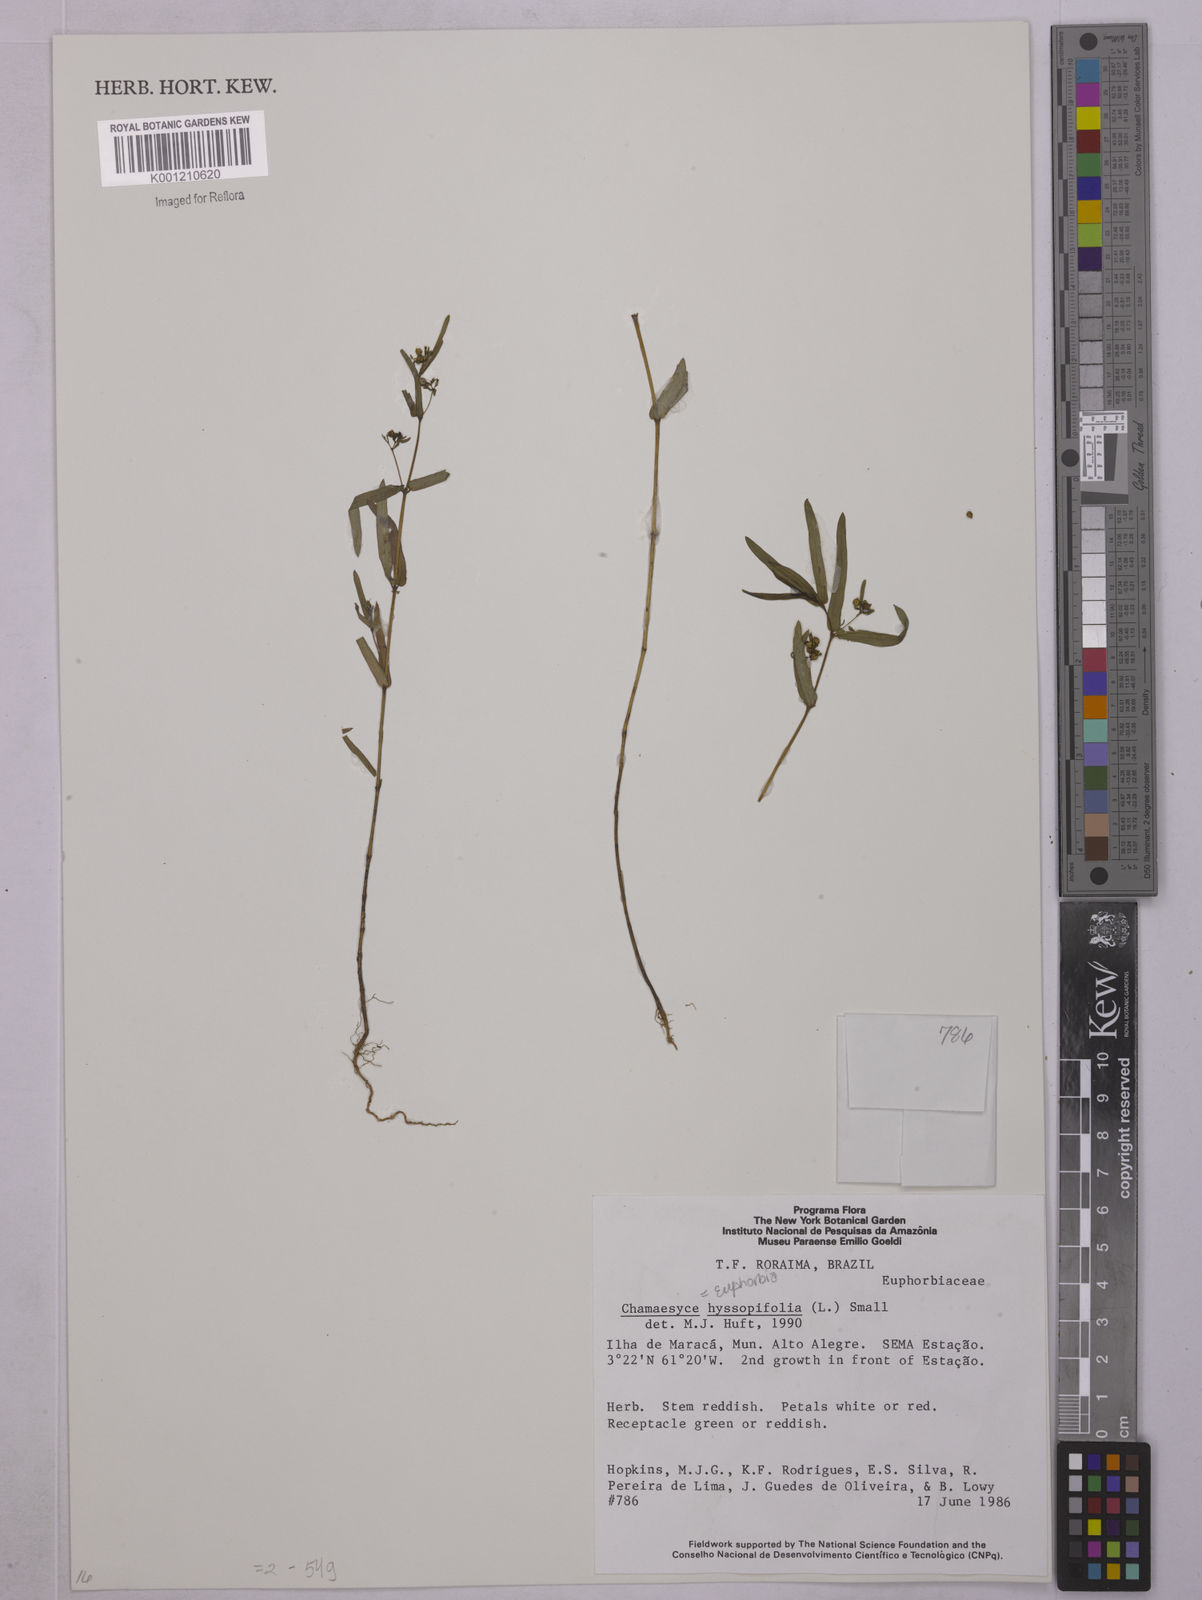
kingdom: Plantae
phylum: Tracheophyta
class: Magnoliopsida
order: Malpighiales
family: Euphorbiaceae
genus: Euphorbia
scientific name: Euphorbia hyssopifolia
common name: Hyssopleaf sandmat
